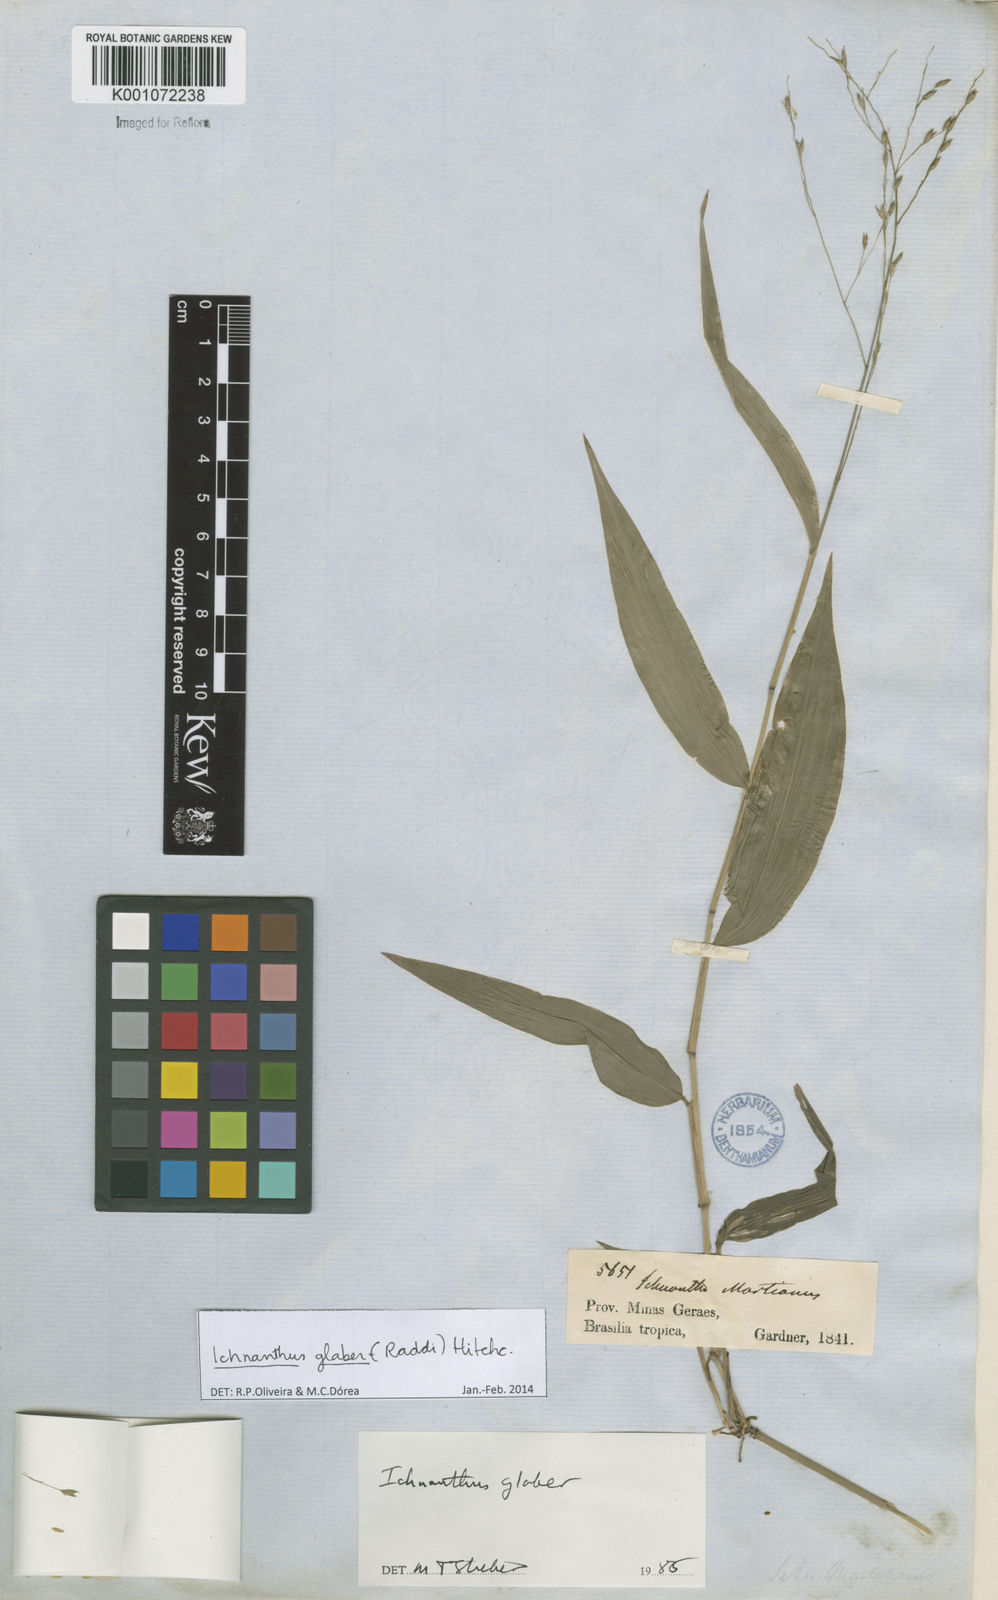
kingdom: Plantae
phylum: Tracheophyta
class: Liliopsida
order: Poales
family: Poaceae
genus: Ichnanthus
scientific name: Ichnanthus glaber
